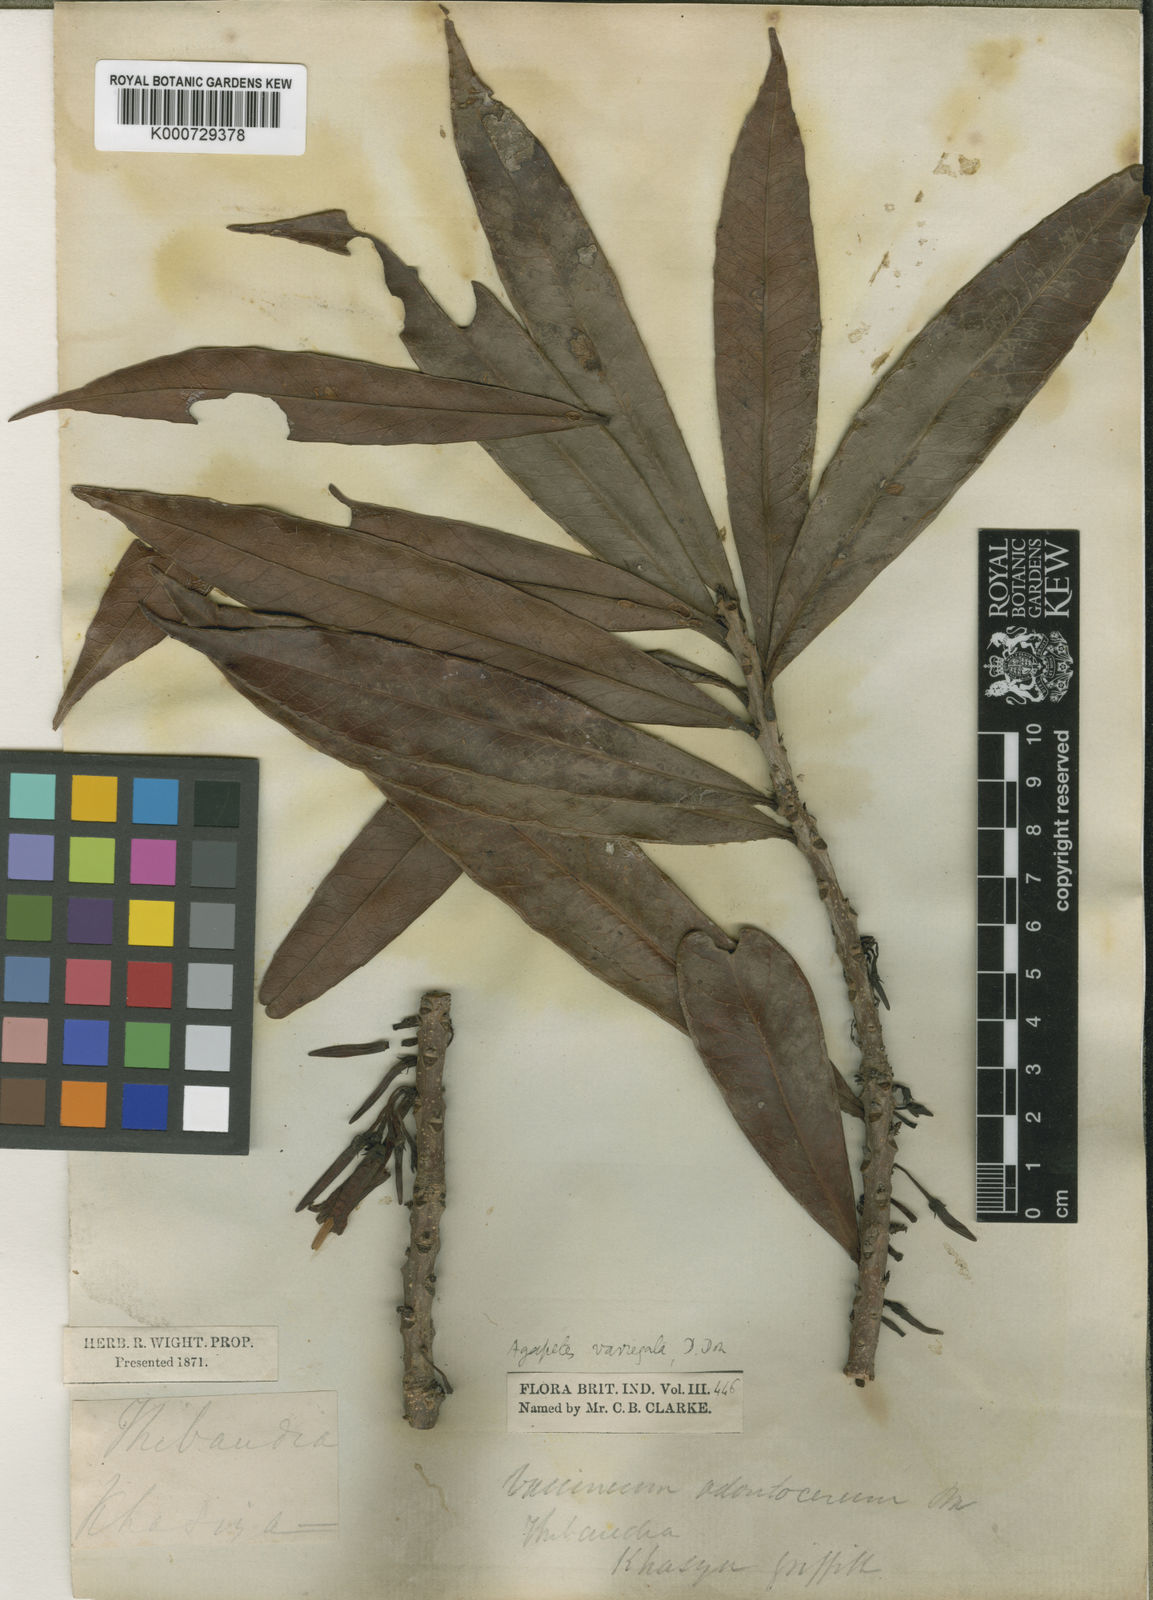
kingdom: Plantae
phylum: Tracheophyta
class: Magnoliopsida
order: Ericales
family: Ericaceae
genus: Agapetes
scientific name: Agapetes odontocera
